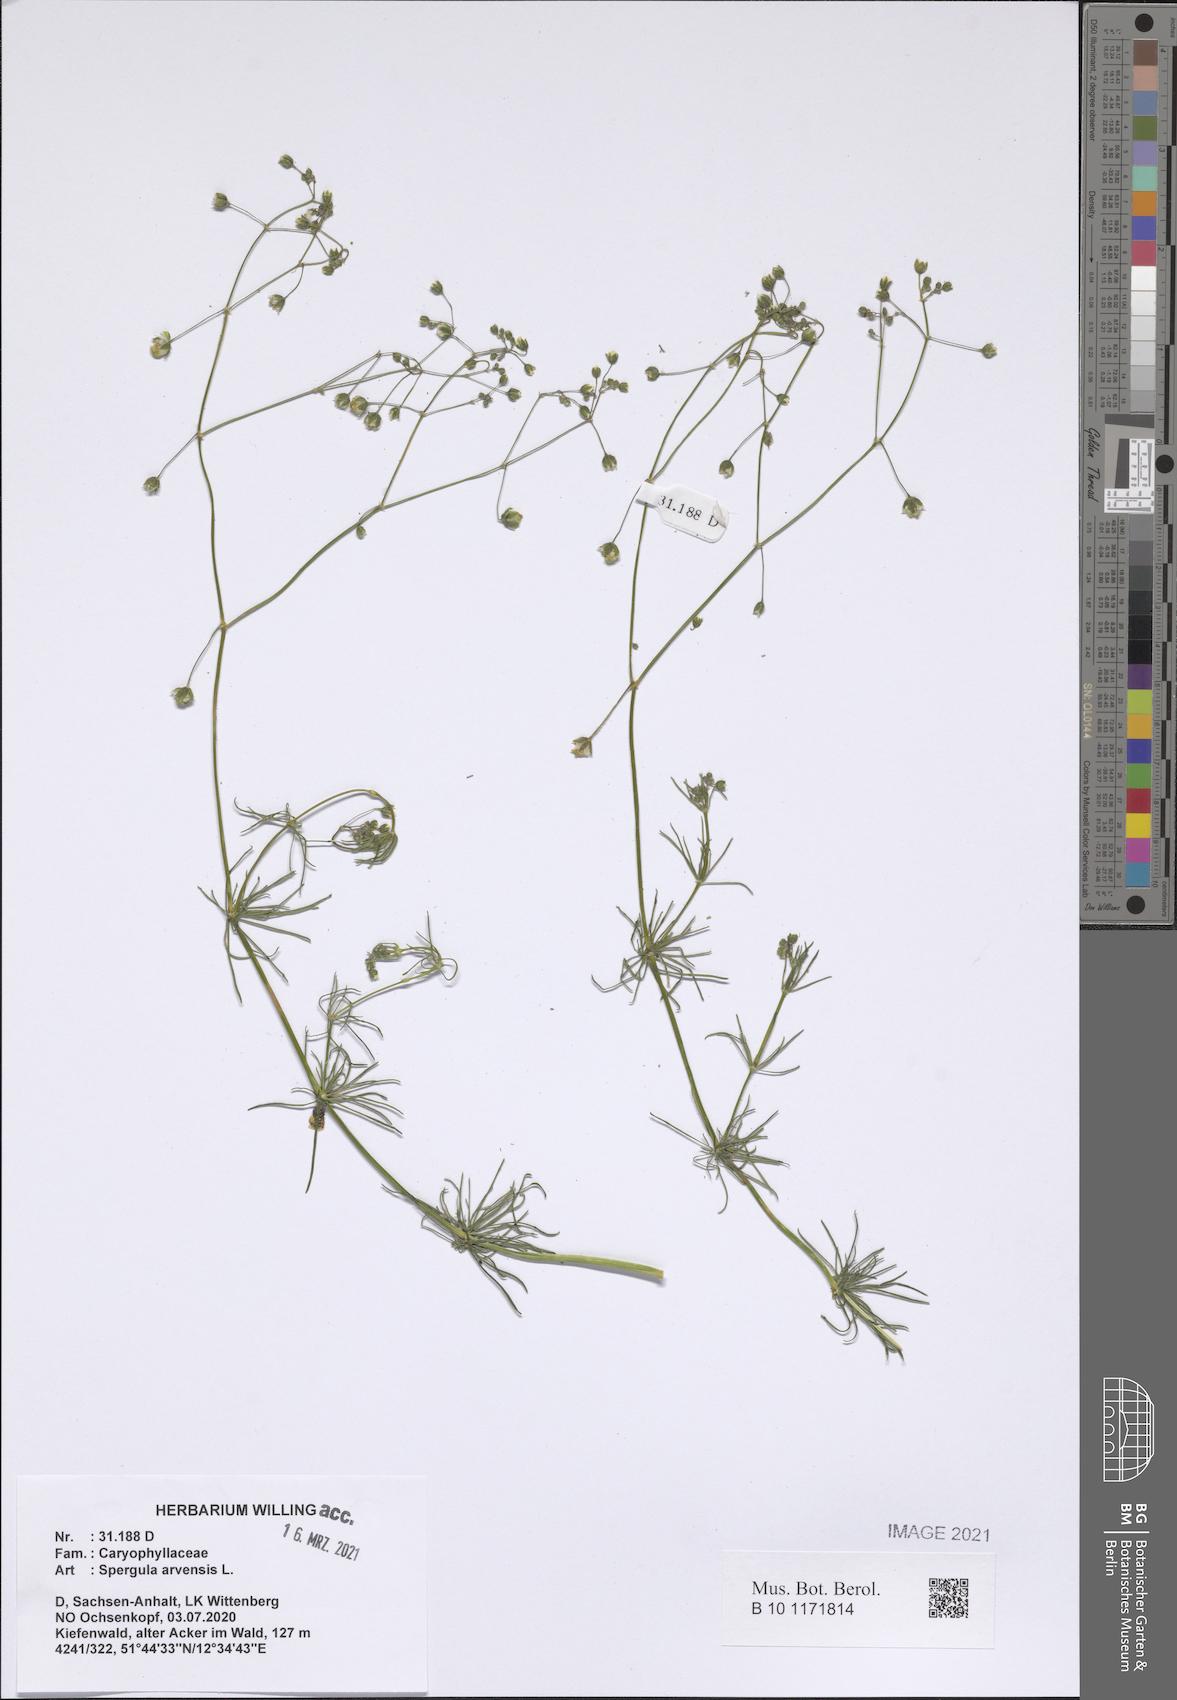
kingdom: Plantae
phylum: Tracheophyta
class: Magnoliopsida
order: Caryophyllales
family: Caryophyllaceae
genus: Spergula
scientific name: Spergula arvensis
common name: Corn spurrey
